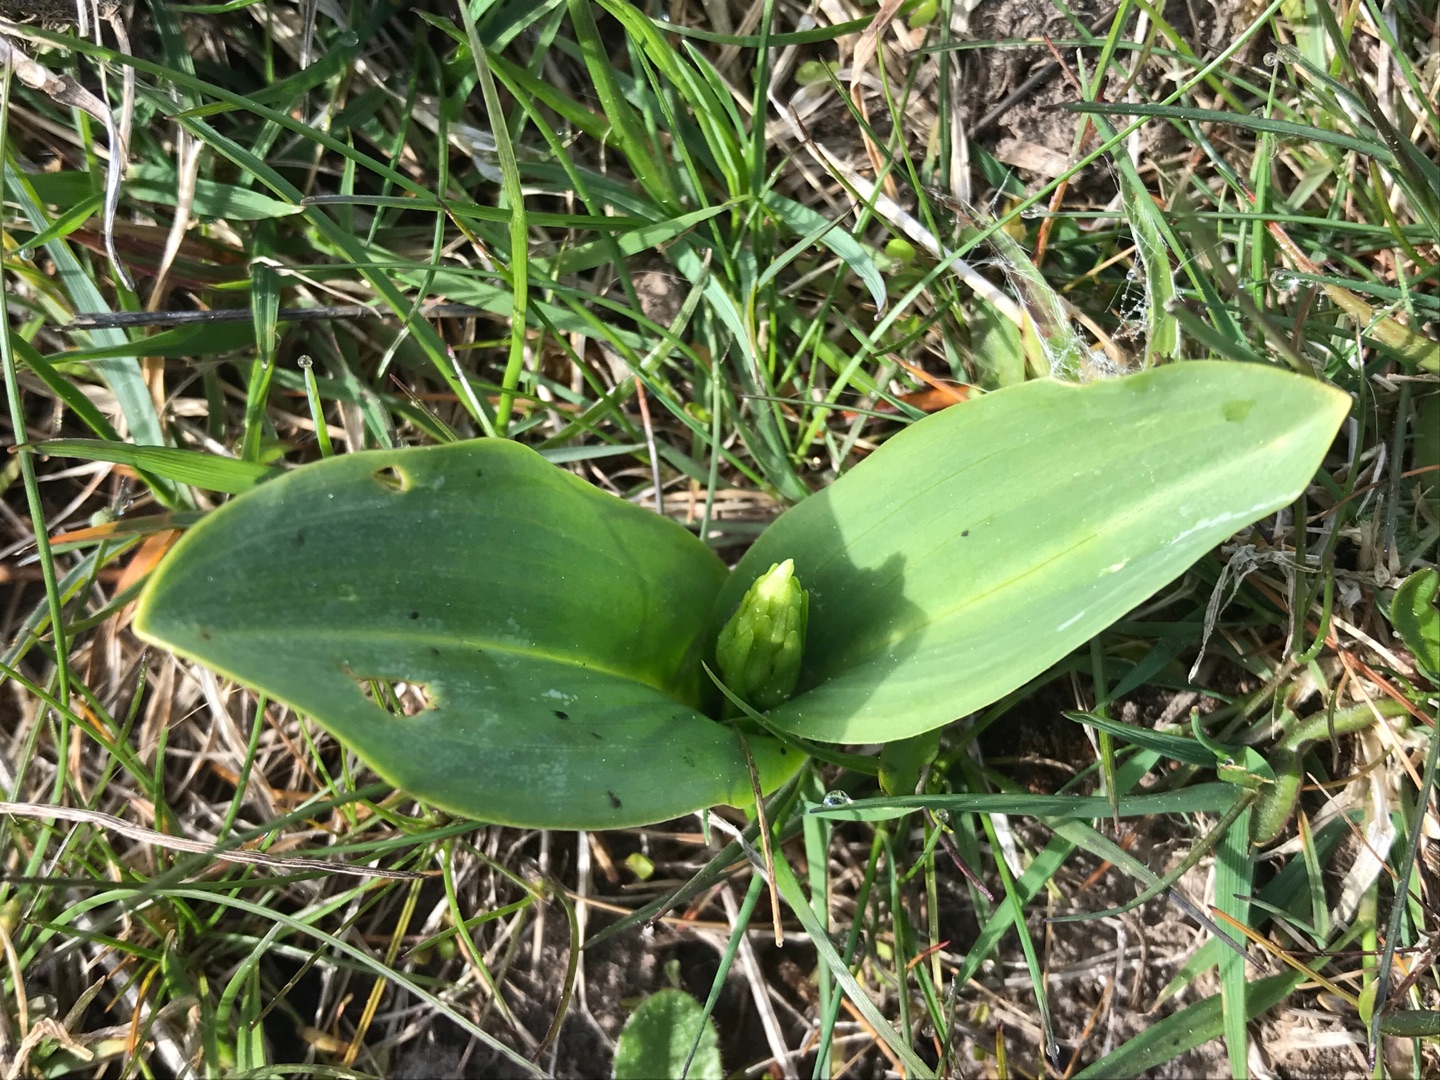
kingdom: Plantae
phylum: Tracheophyta
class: Liliopsida
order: Asparagales
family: Orchidaceae
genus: Platanthera
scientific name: Platanthera
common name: Gøgeliljeslægten
